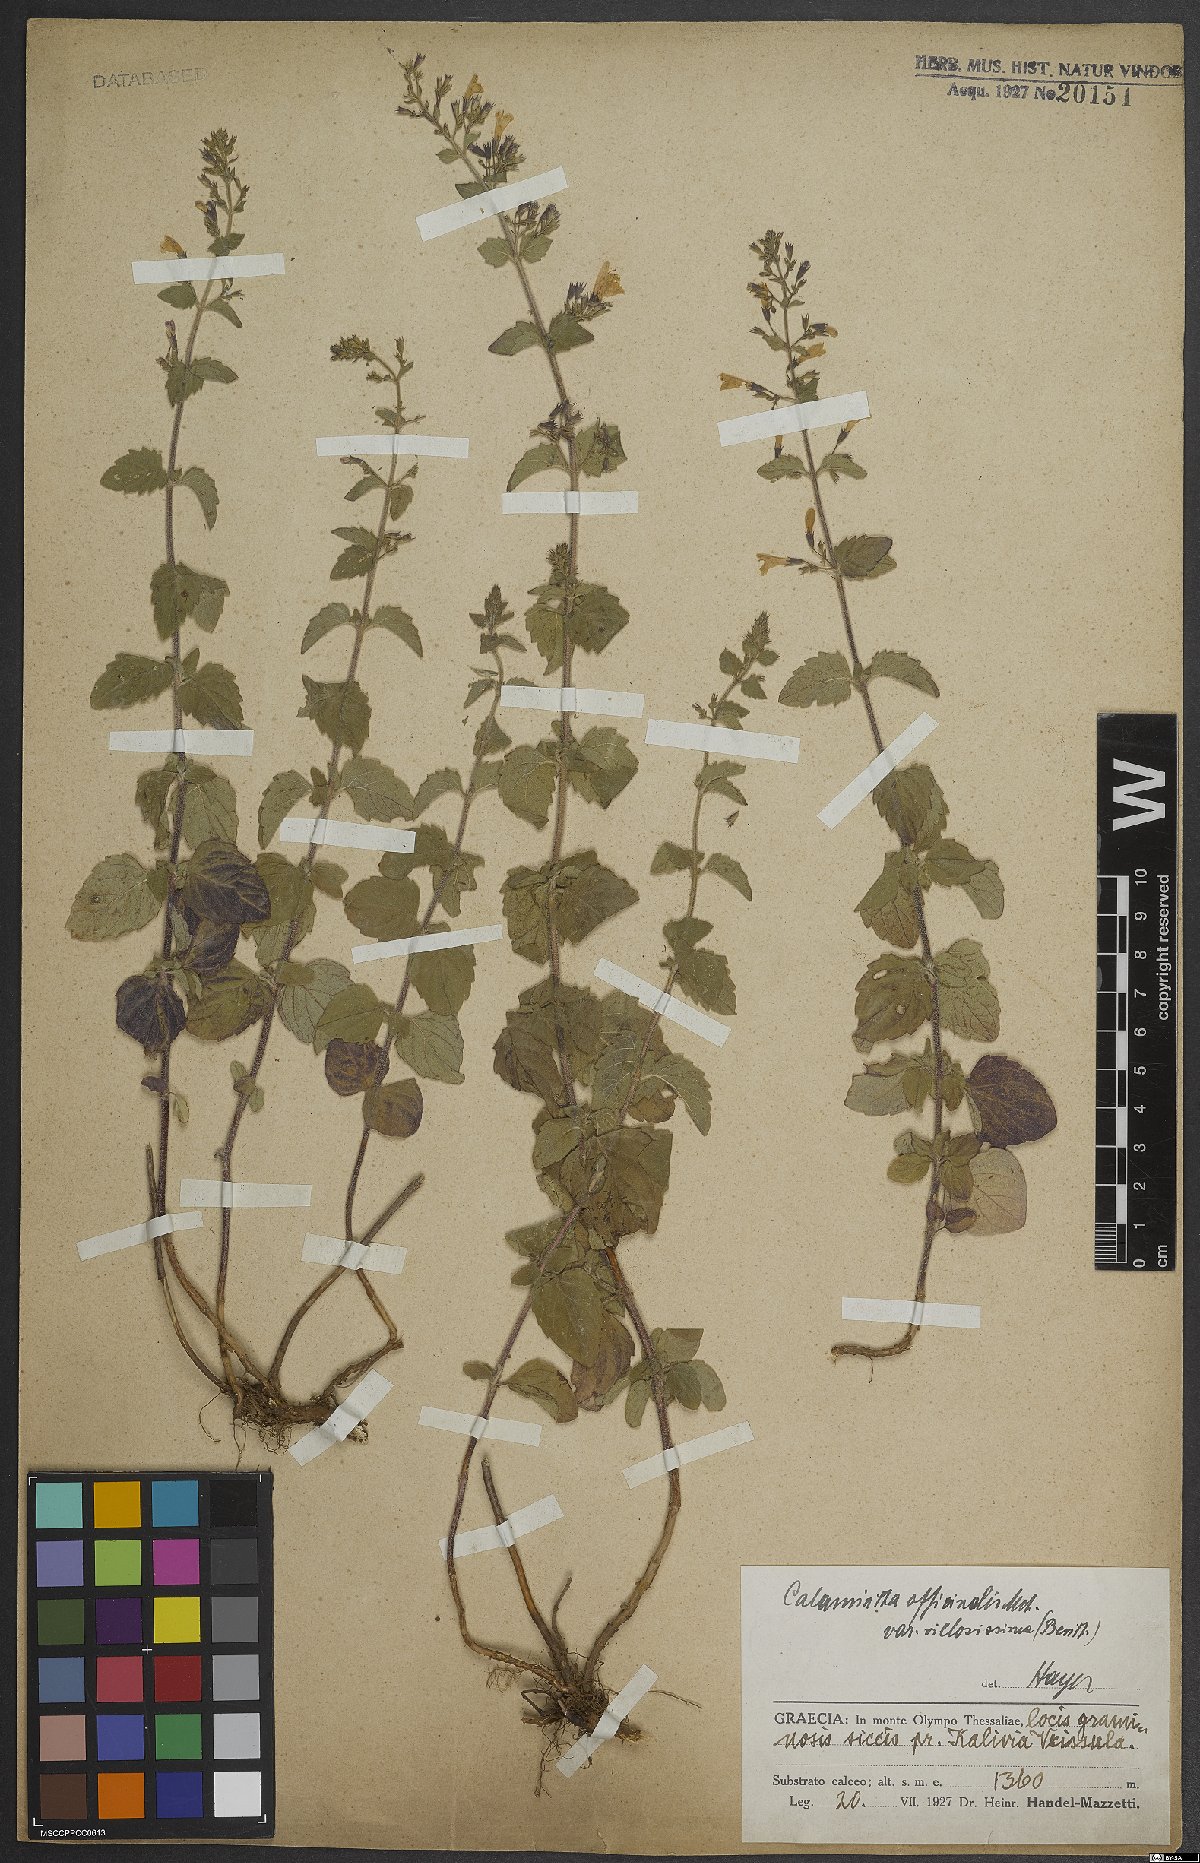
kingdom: Plantae
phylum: Tracheophyta
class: Magnoliopsida
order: Lamiales
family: Lamiaceae
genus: Clinopodium
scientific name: Clinopodium nepeta
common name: Lesser calamint
